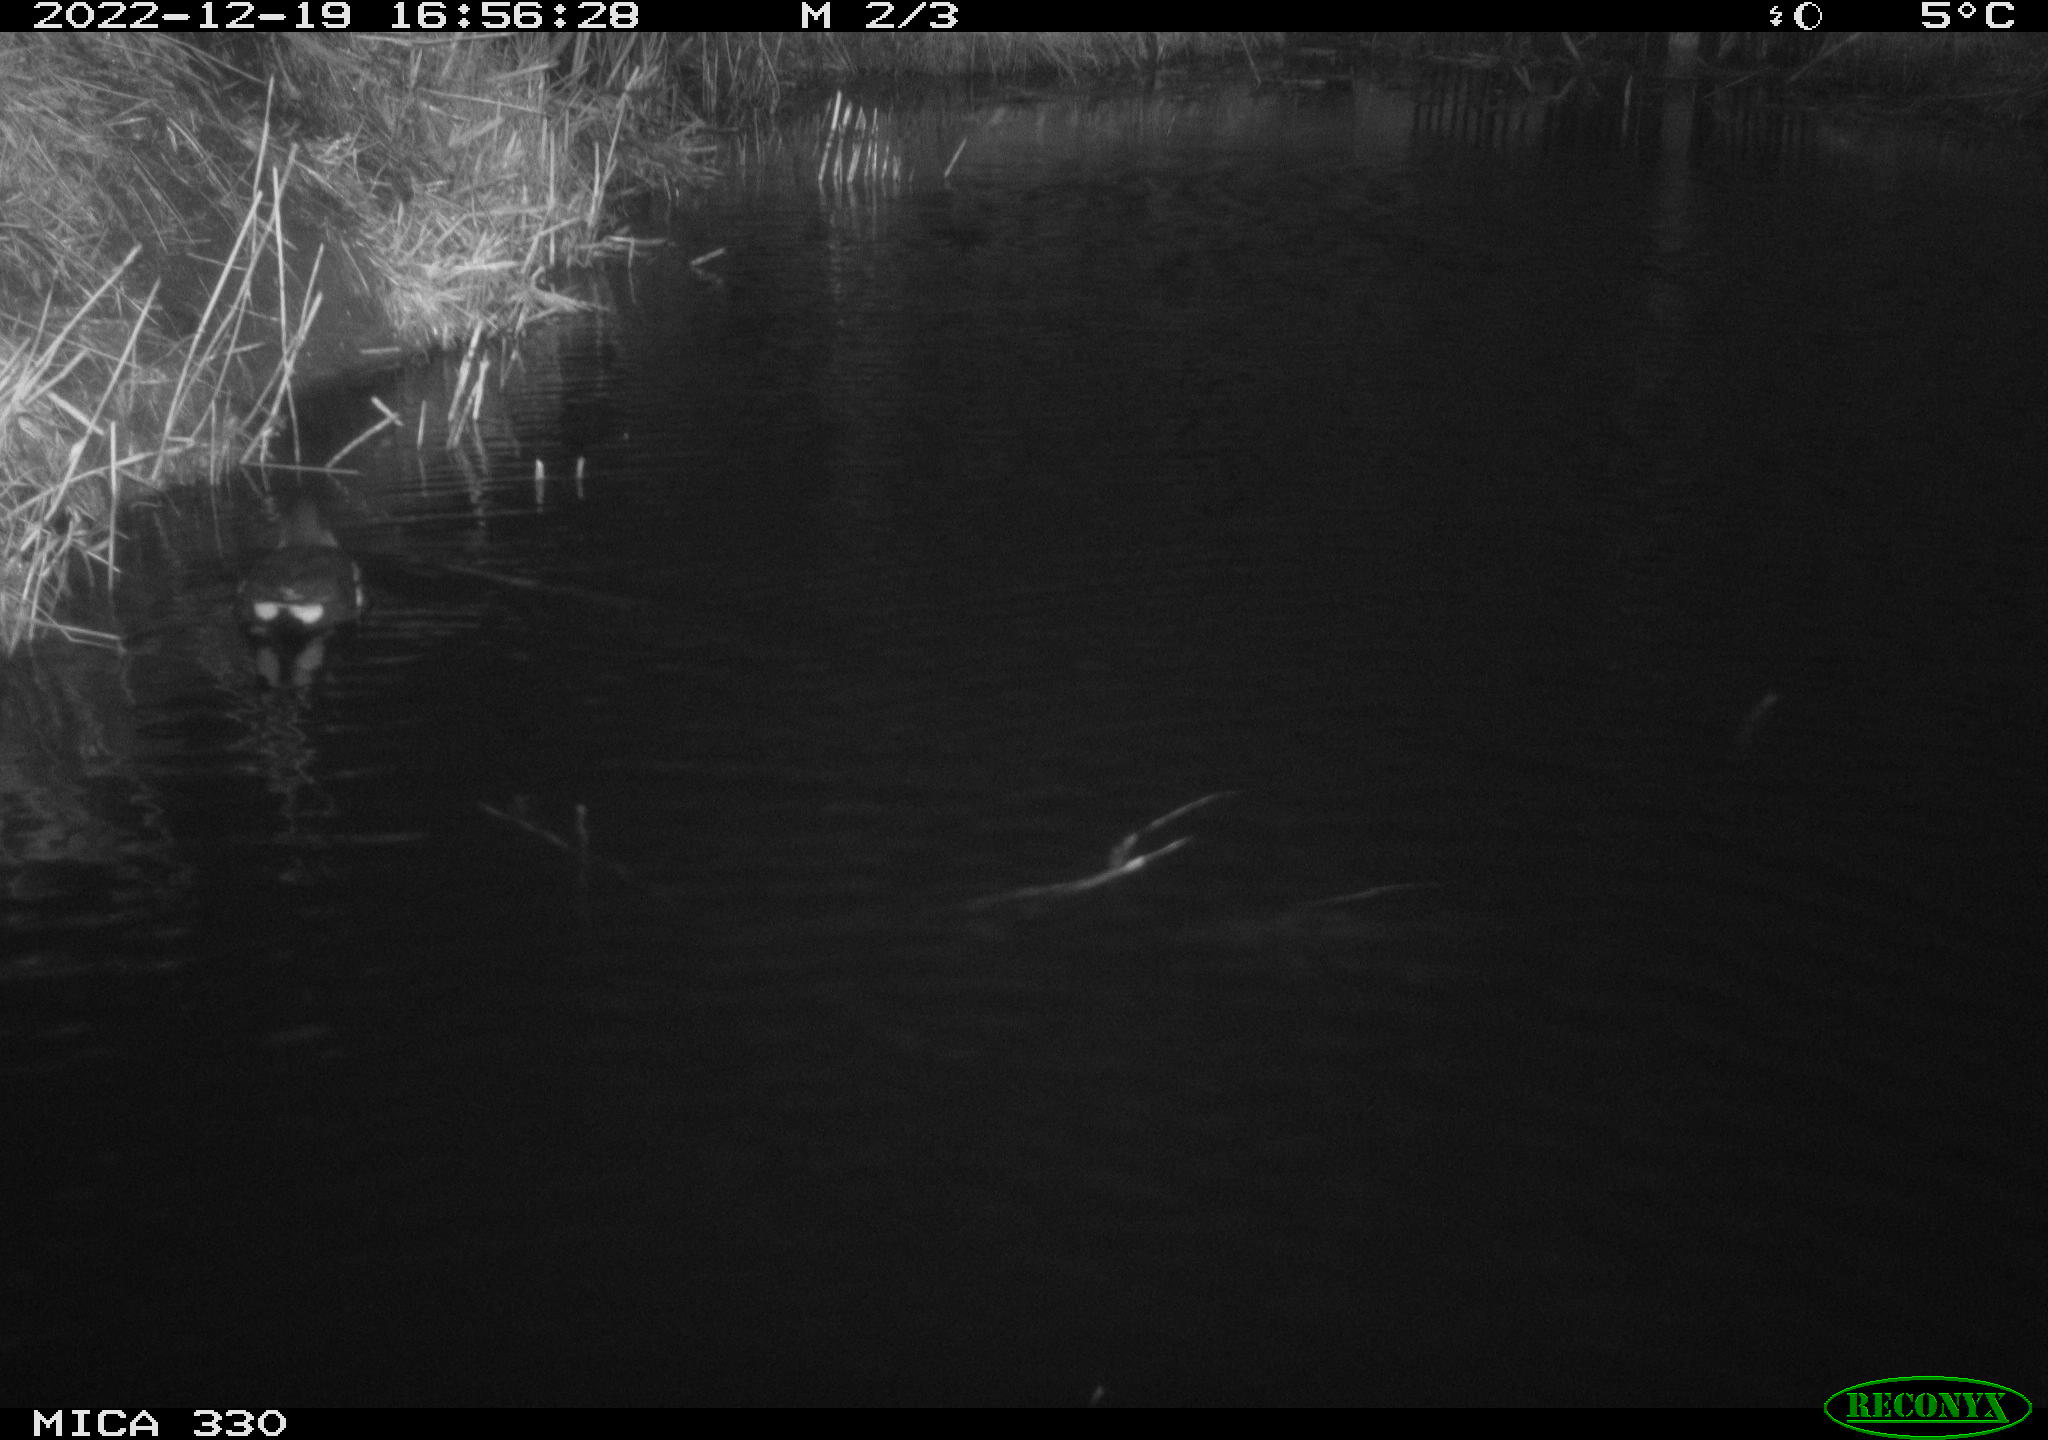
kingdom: Animalia
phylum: Chordata
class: Aves
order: Gruiformes
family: Rallidae
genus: Gallinula
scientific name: Gallinula chloropus
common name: Common moorhen
